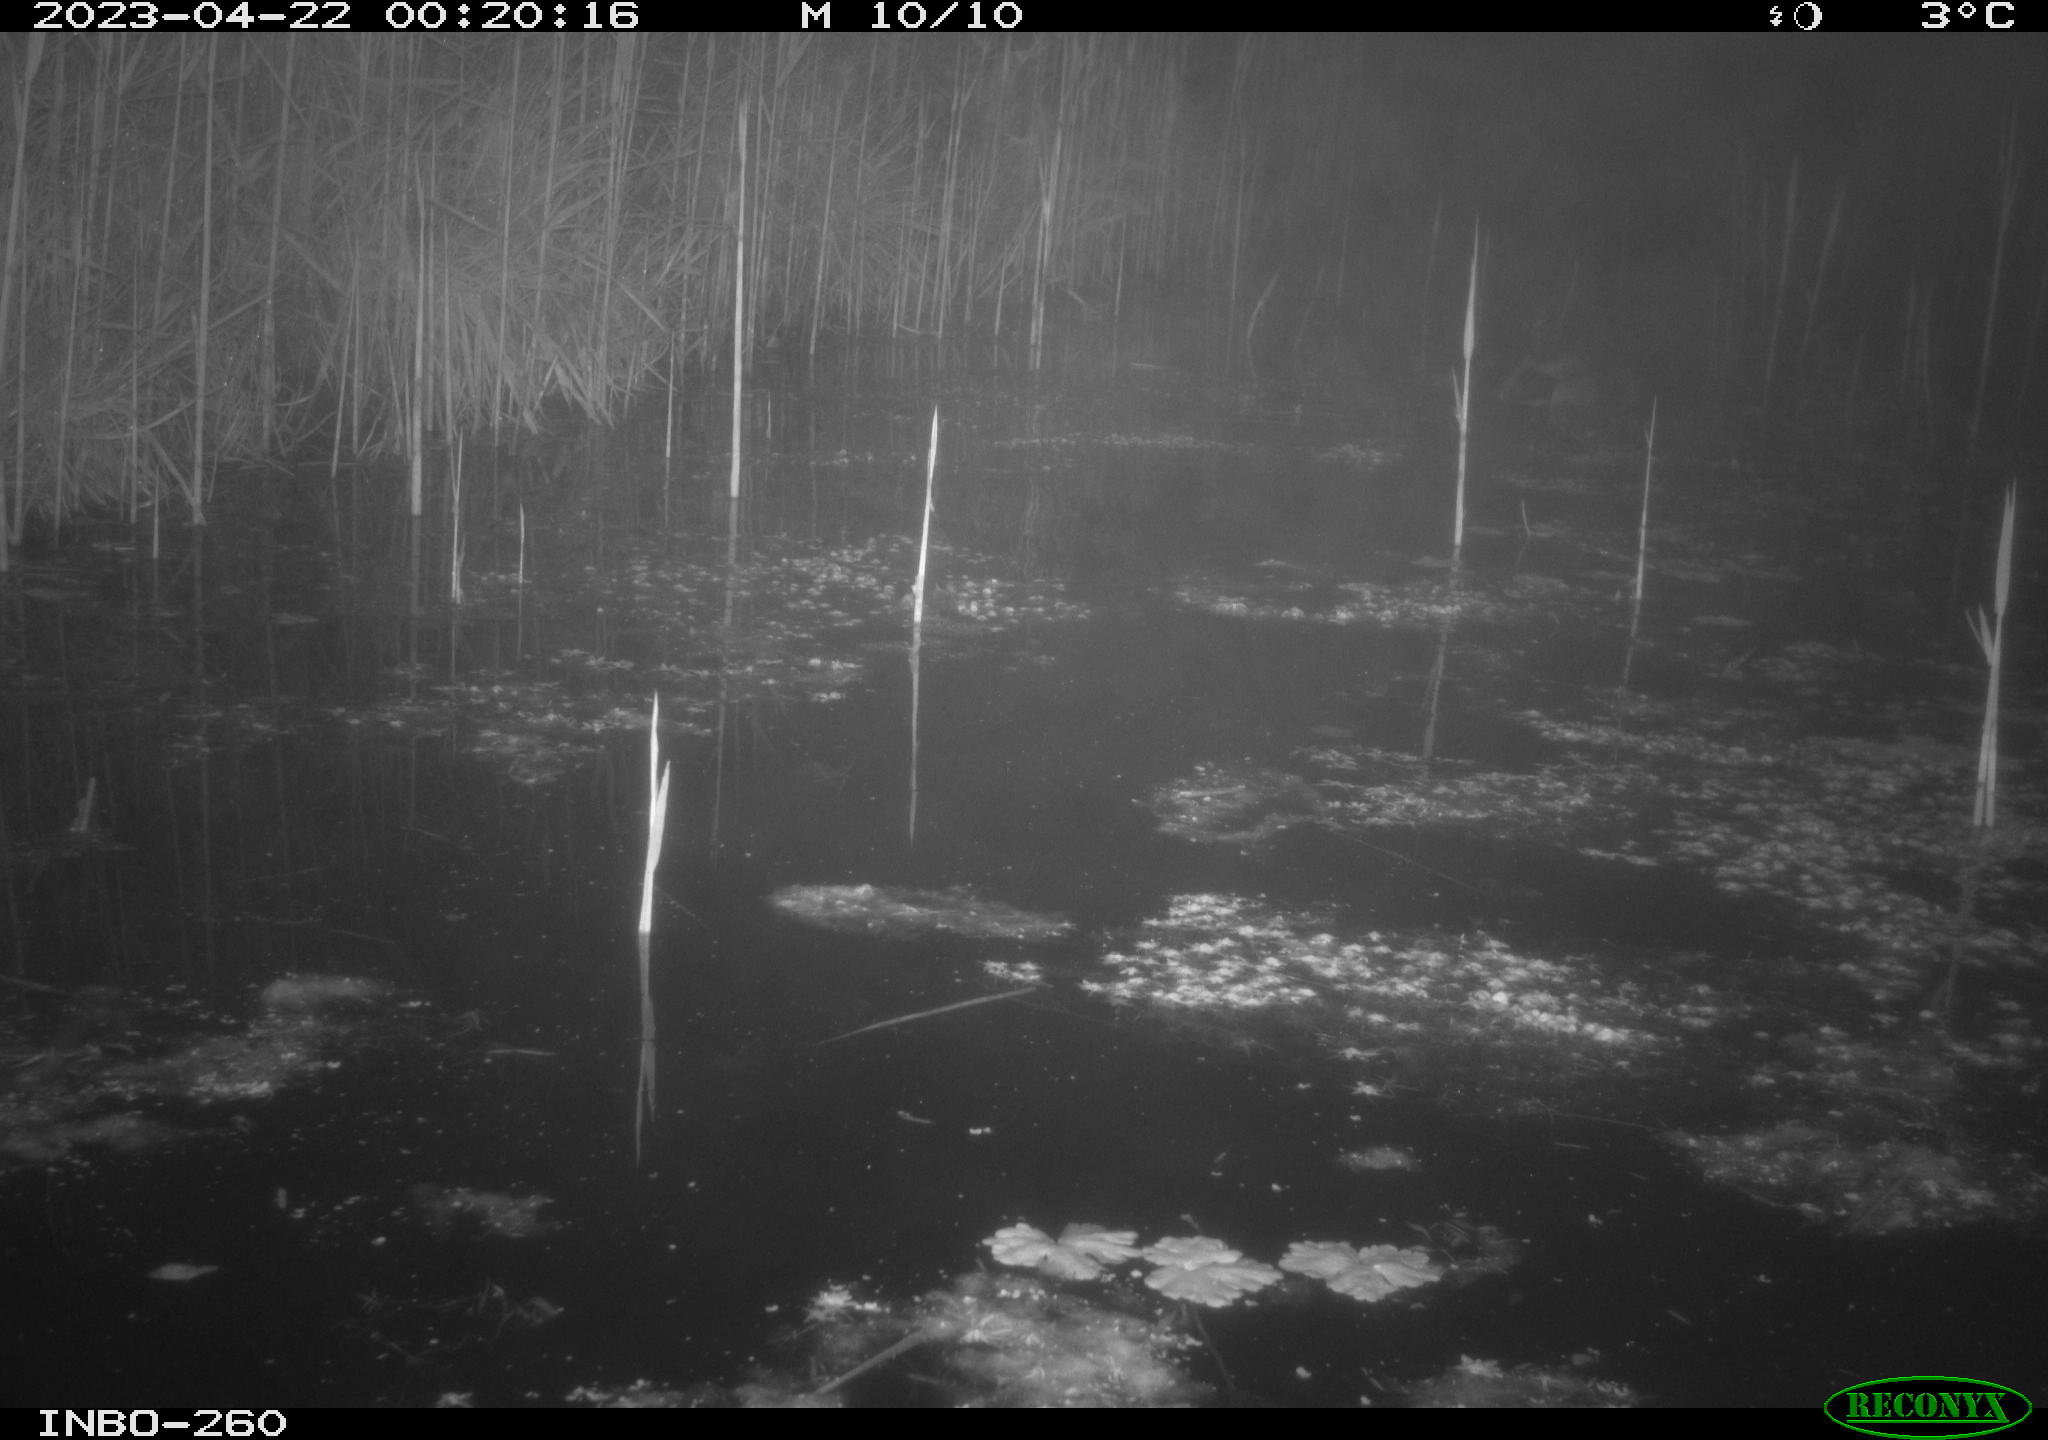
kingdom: Animalia
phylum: Chordata
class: Aves
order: Anseriformes
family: Anatidae
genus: Anas
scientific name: Anas
